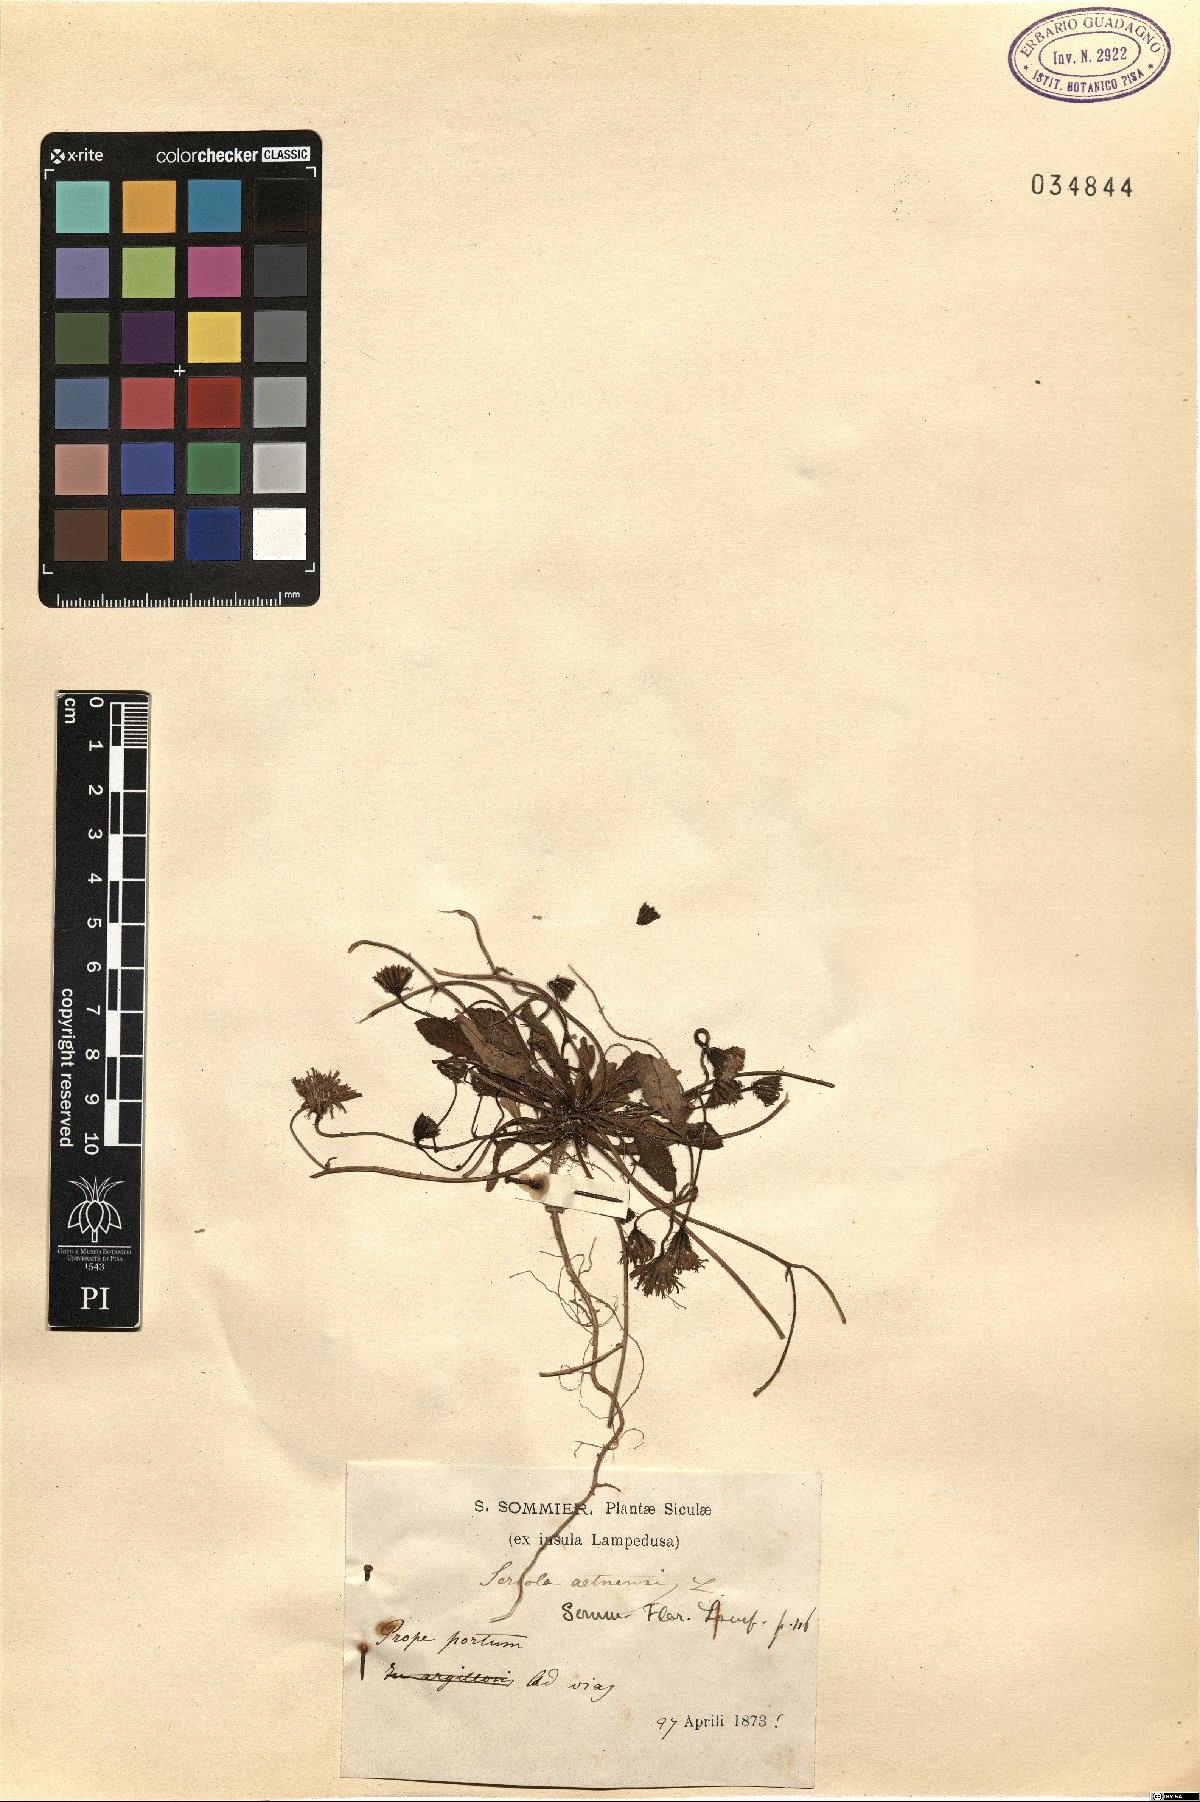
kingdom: Plantae
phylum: Tracheophyta
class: Magnoliopsida
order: Asterales
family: Asteraceae
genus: Achyrophorus
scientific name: Achyrophorus valdesii
